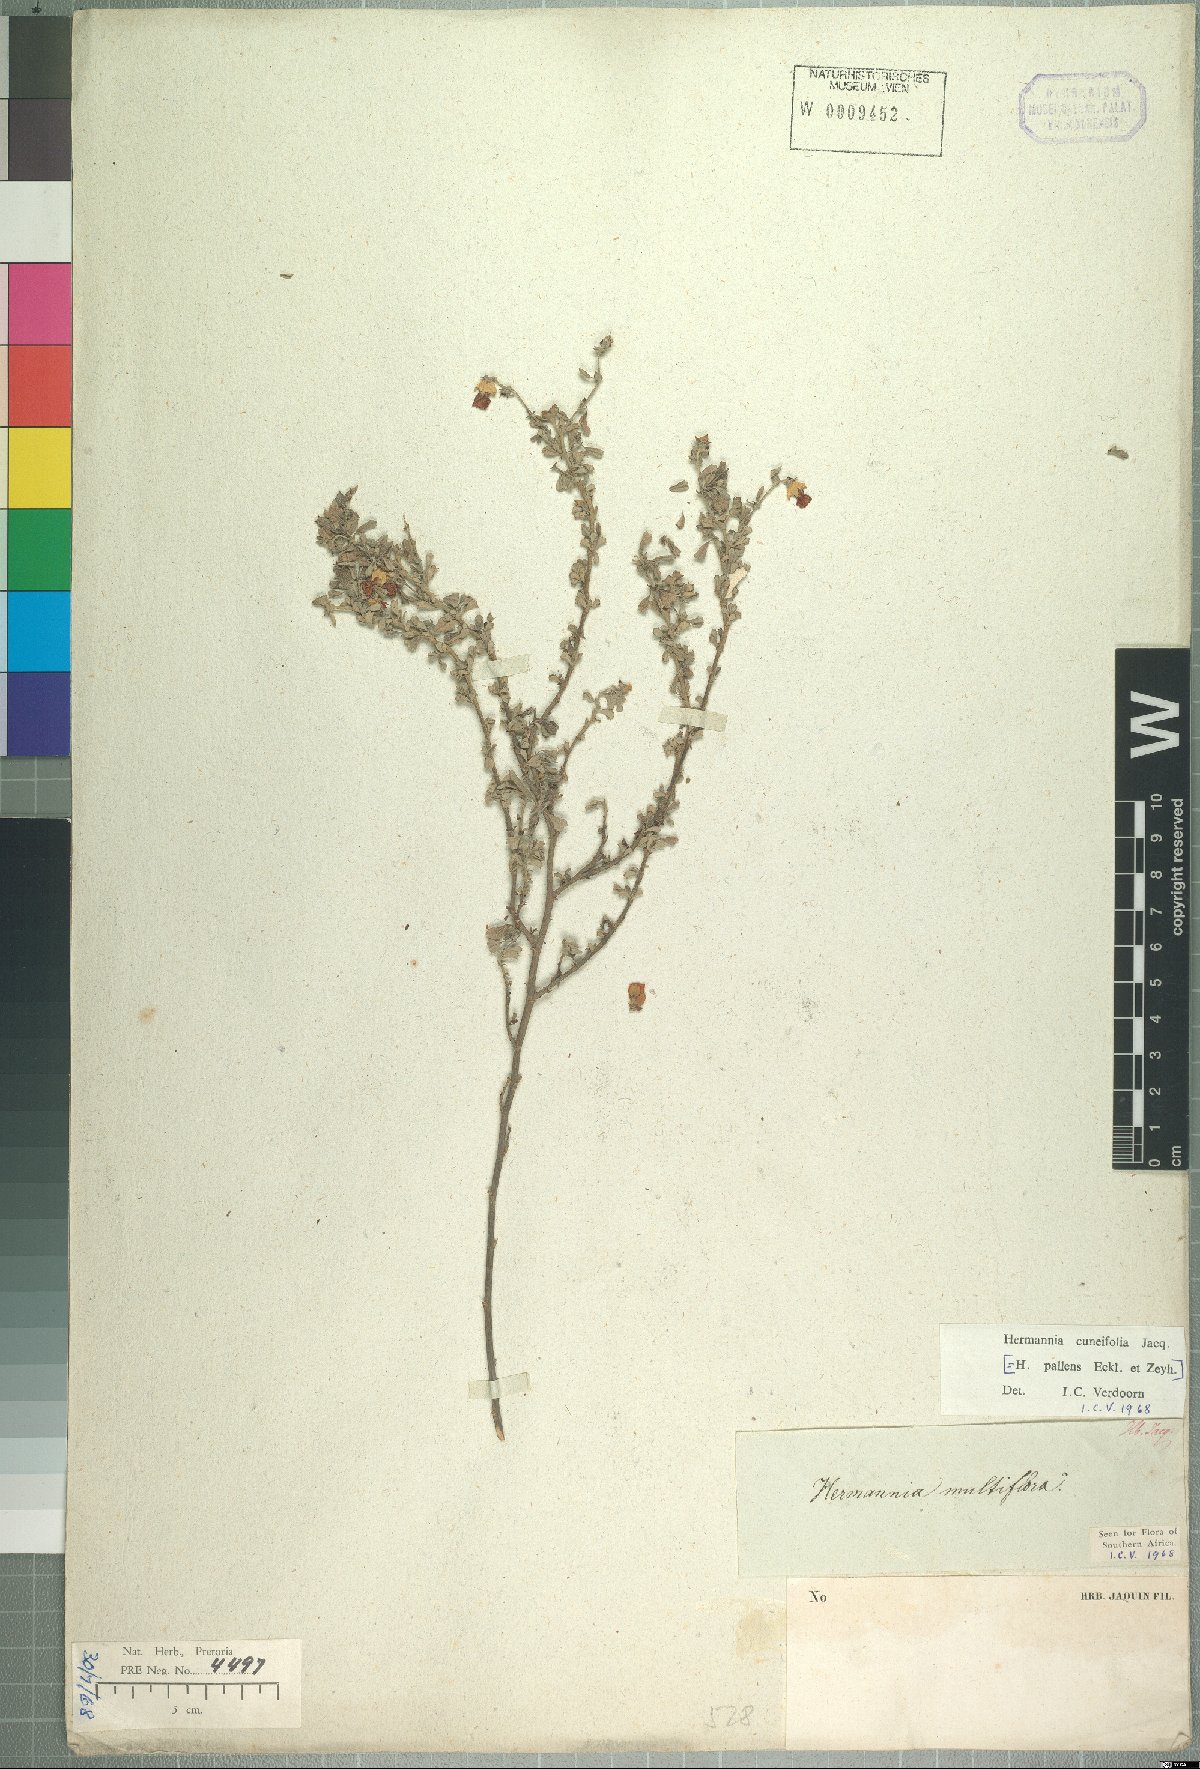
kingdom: Plantae
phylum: Tracheophyta
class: Magnoliopsida
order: Malvales
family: Malvaceae
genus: Hermannia
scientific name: Hermannia multiflora
